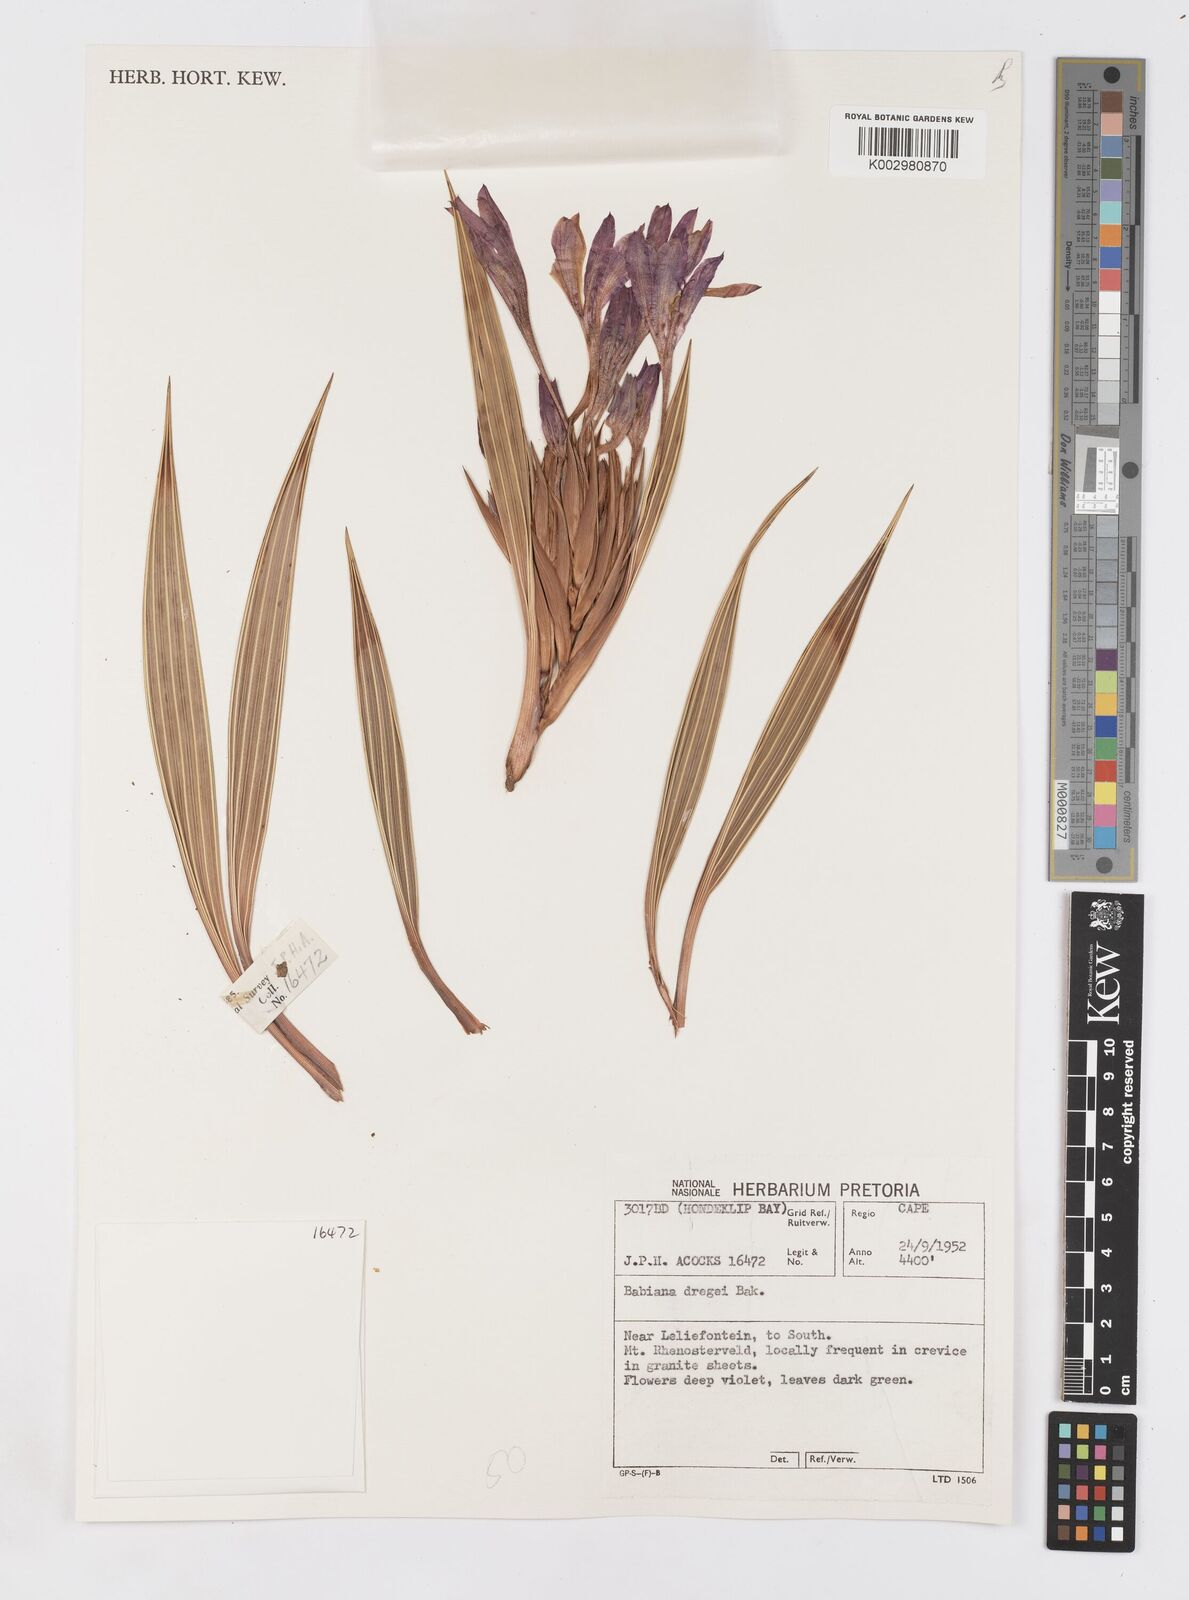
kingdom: Plantae
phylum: Tracheophyta
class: Liliopsida
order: Asparagales
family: Iridaceae
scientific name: Iridaceae
